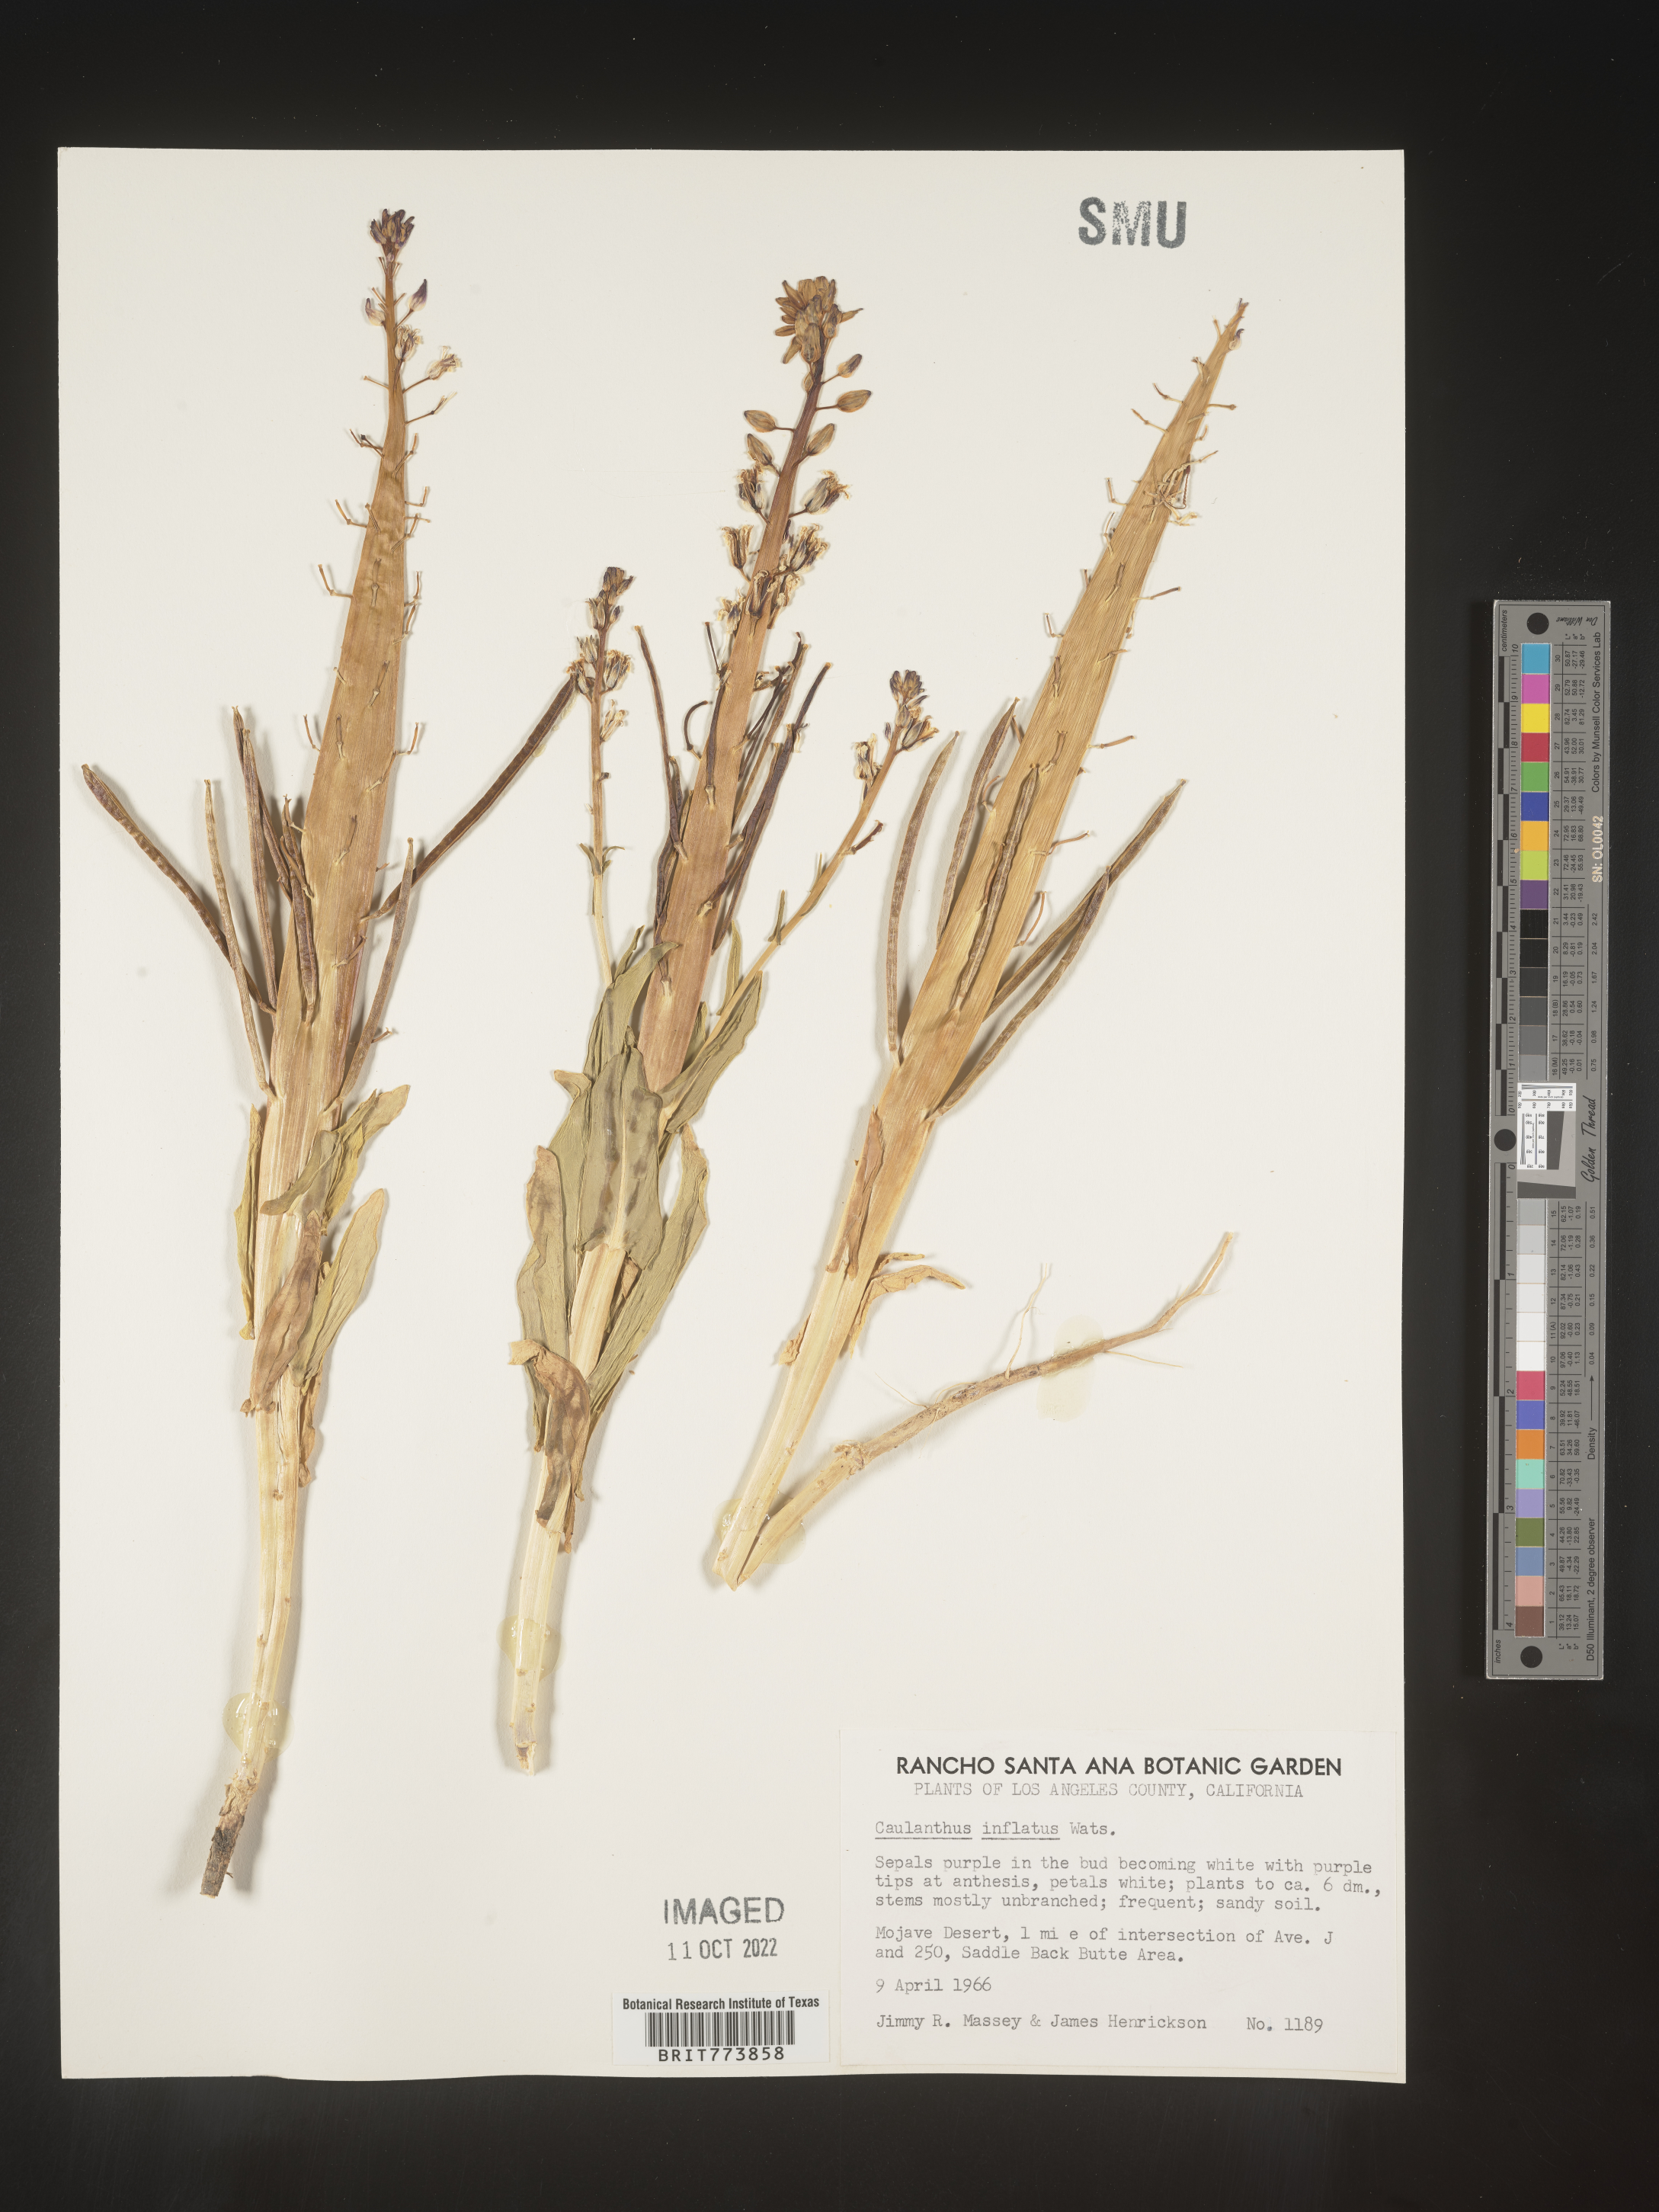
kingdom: Plantae
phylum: Tracheophyta
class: Magnoliopsida
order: Brassicales
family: Brassicaceae
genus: Streptanthus
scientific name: Streptanthus
